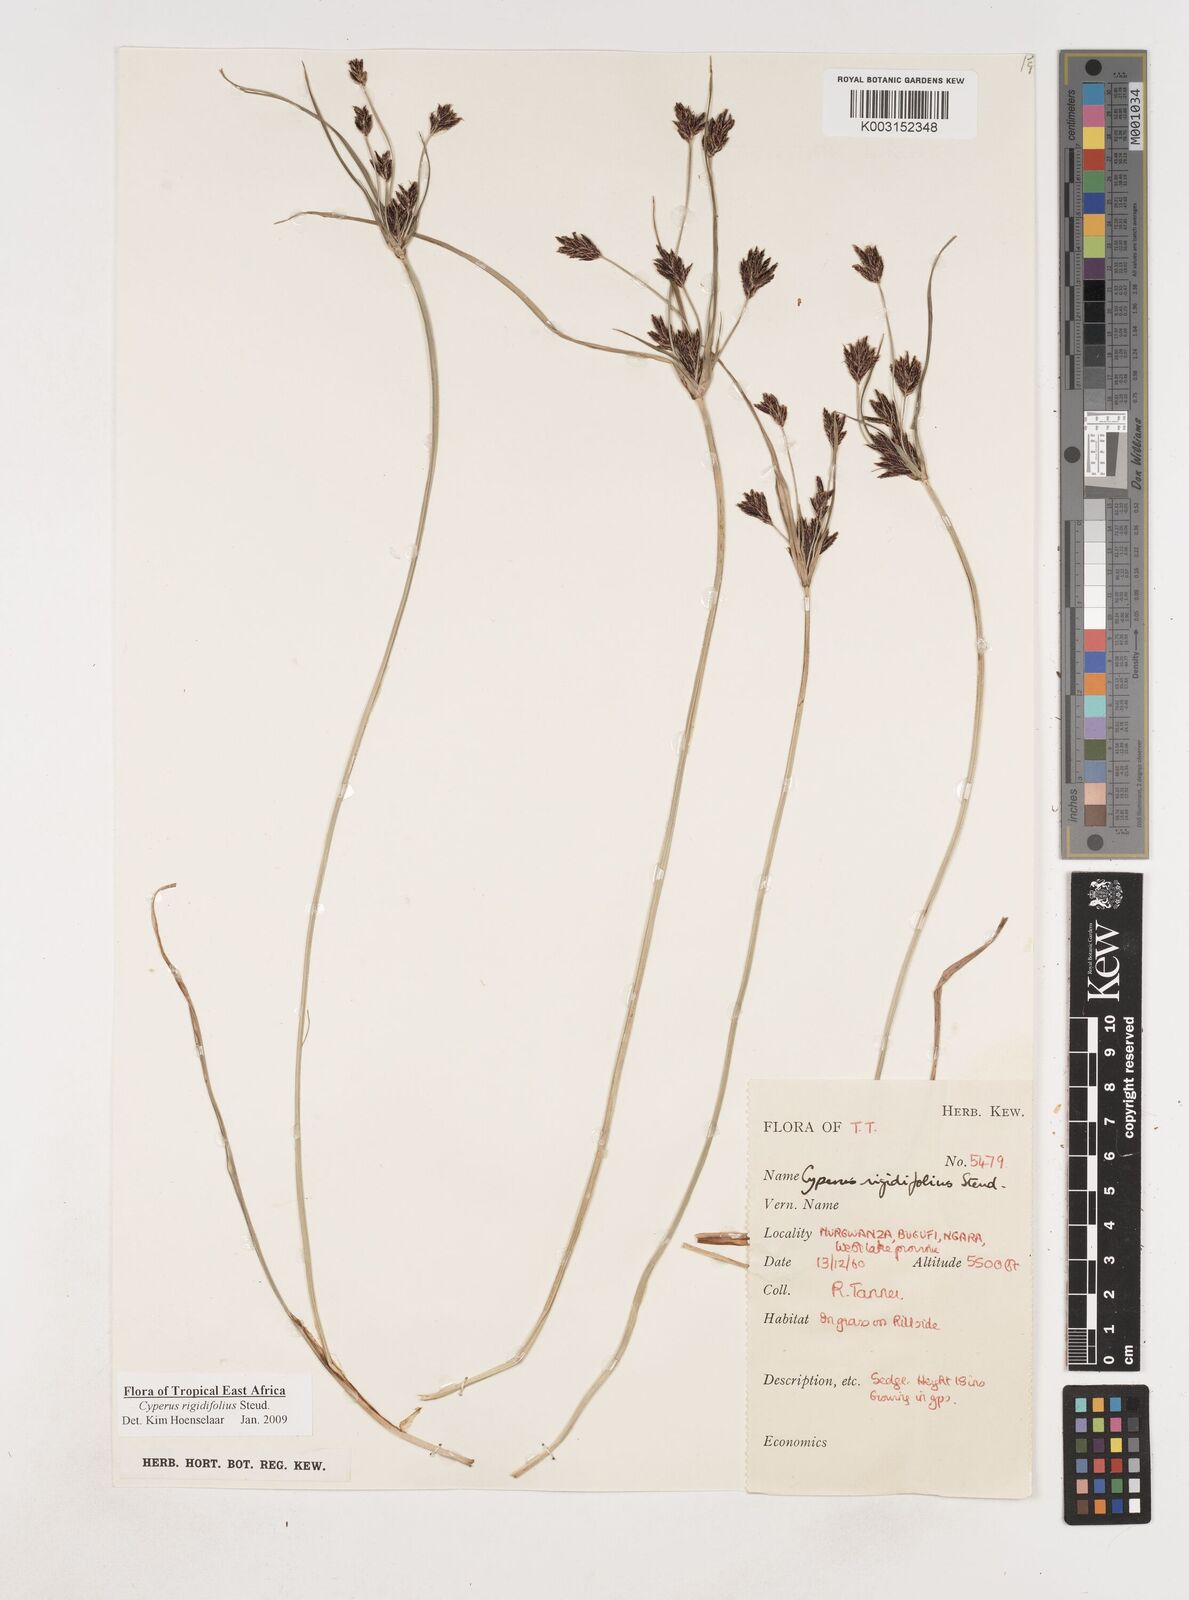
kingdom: Plantae
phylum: Tracheophyta
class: Liliopsida
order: Poales
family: Cyperaceae
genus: Cyperus
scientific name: Cyperus rigidifolius
